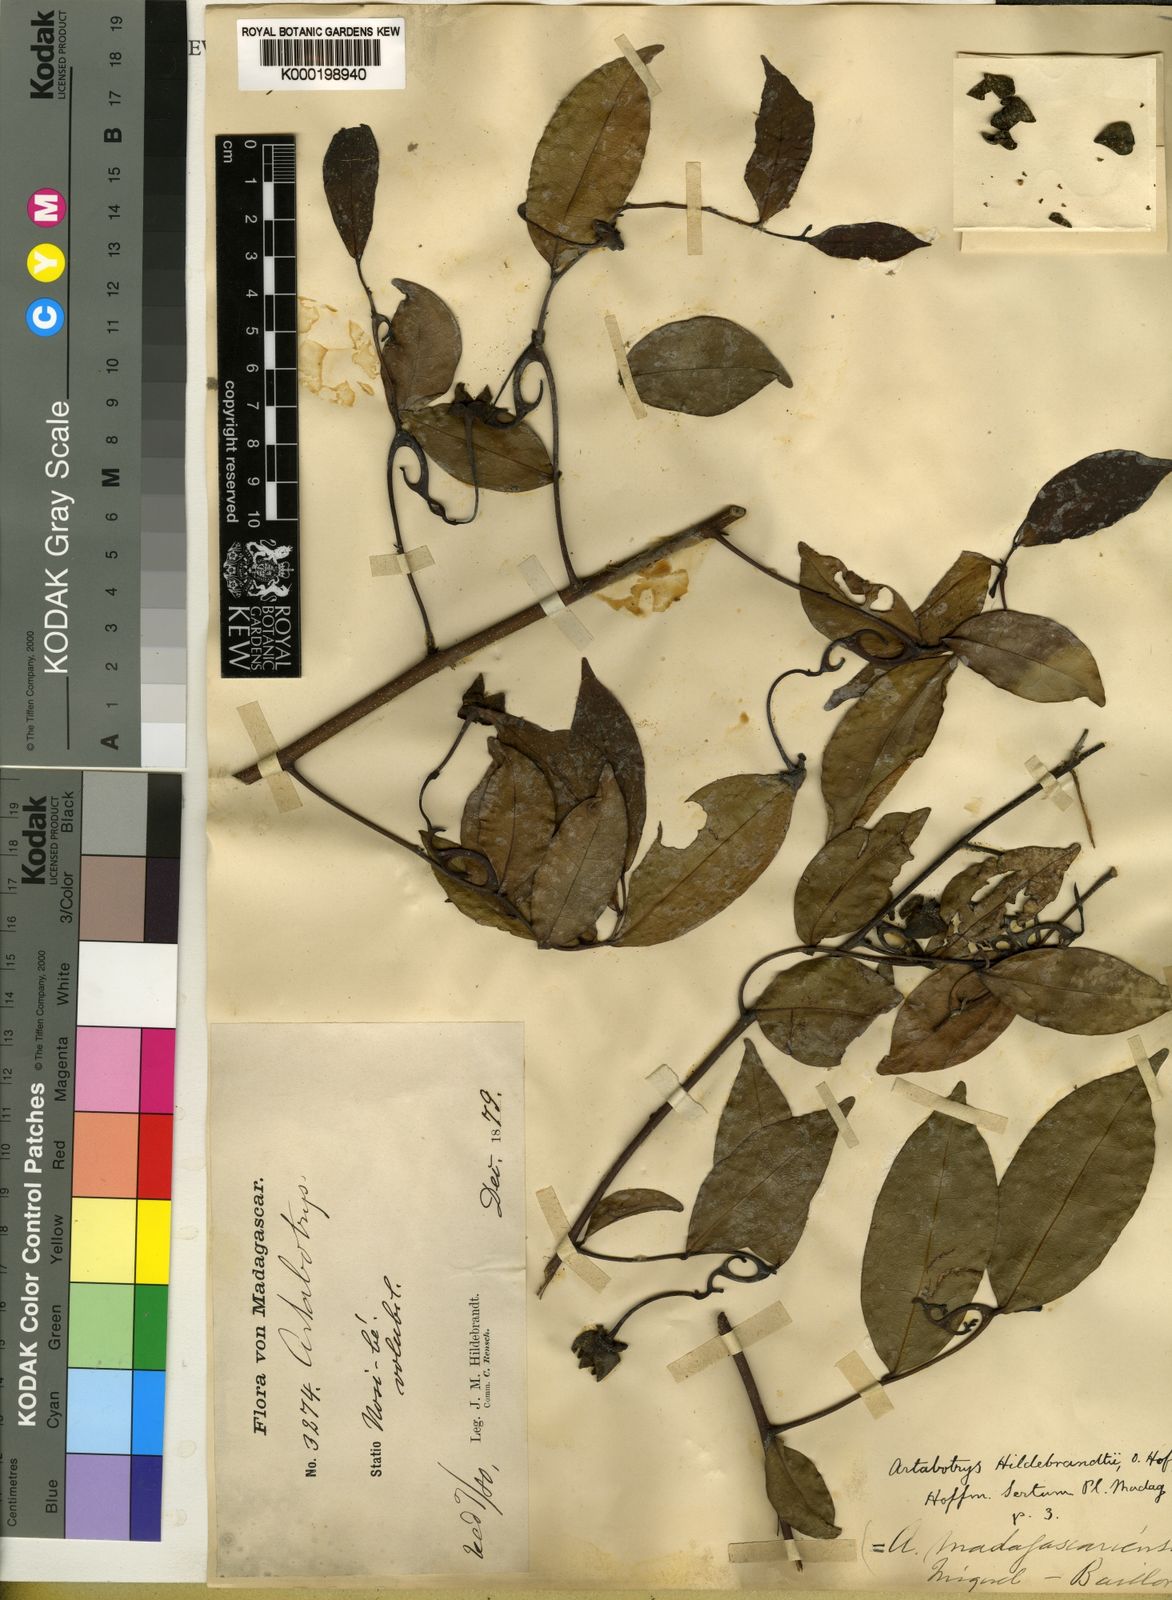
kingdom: Plantae
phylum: Tracheophyta
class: Magnoliopsida
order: Magnoliales
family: Annonaceae
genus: Artabotrys
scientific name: Artabotrys madagascariensis
